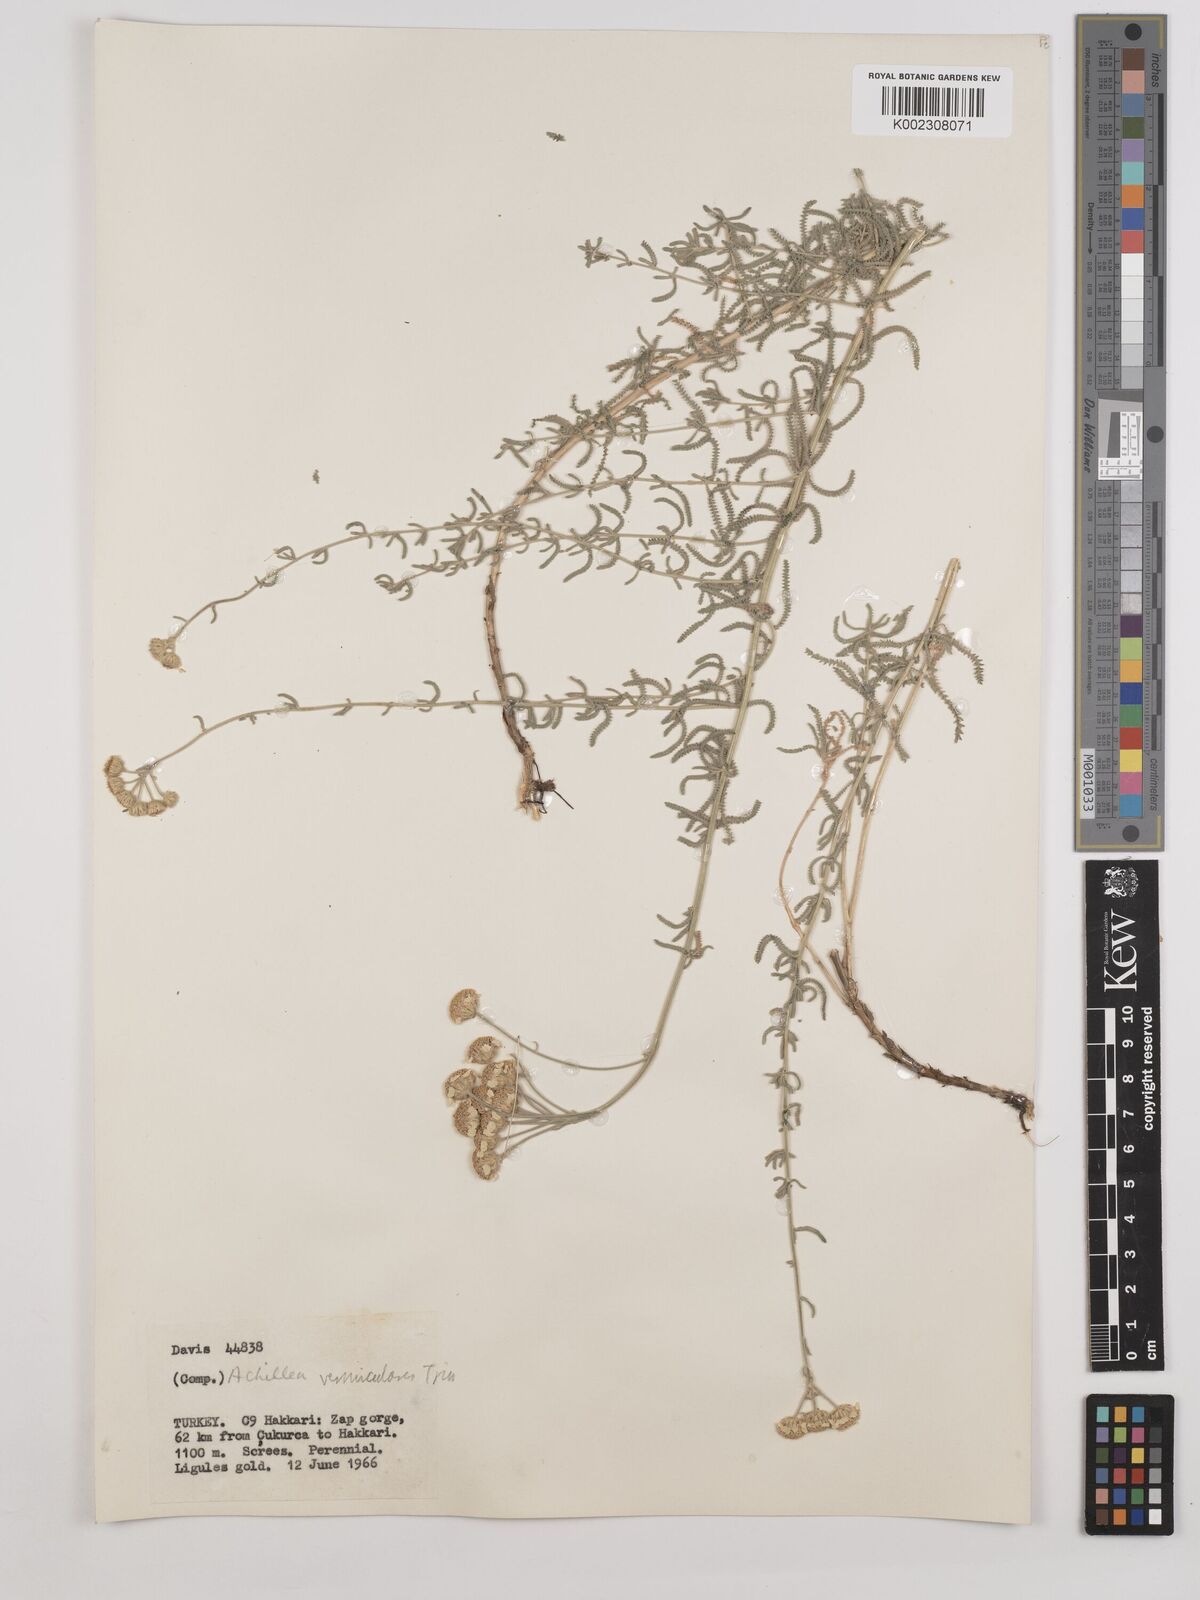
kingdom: Plantae
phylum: Tracheophyta
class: Magnoliopsida
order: Asterales
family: Asteraceae
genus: Achillea
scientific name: Achillea vermicularis
